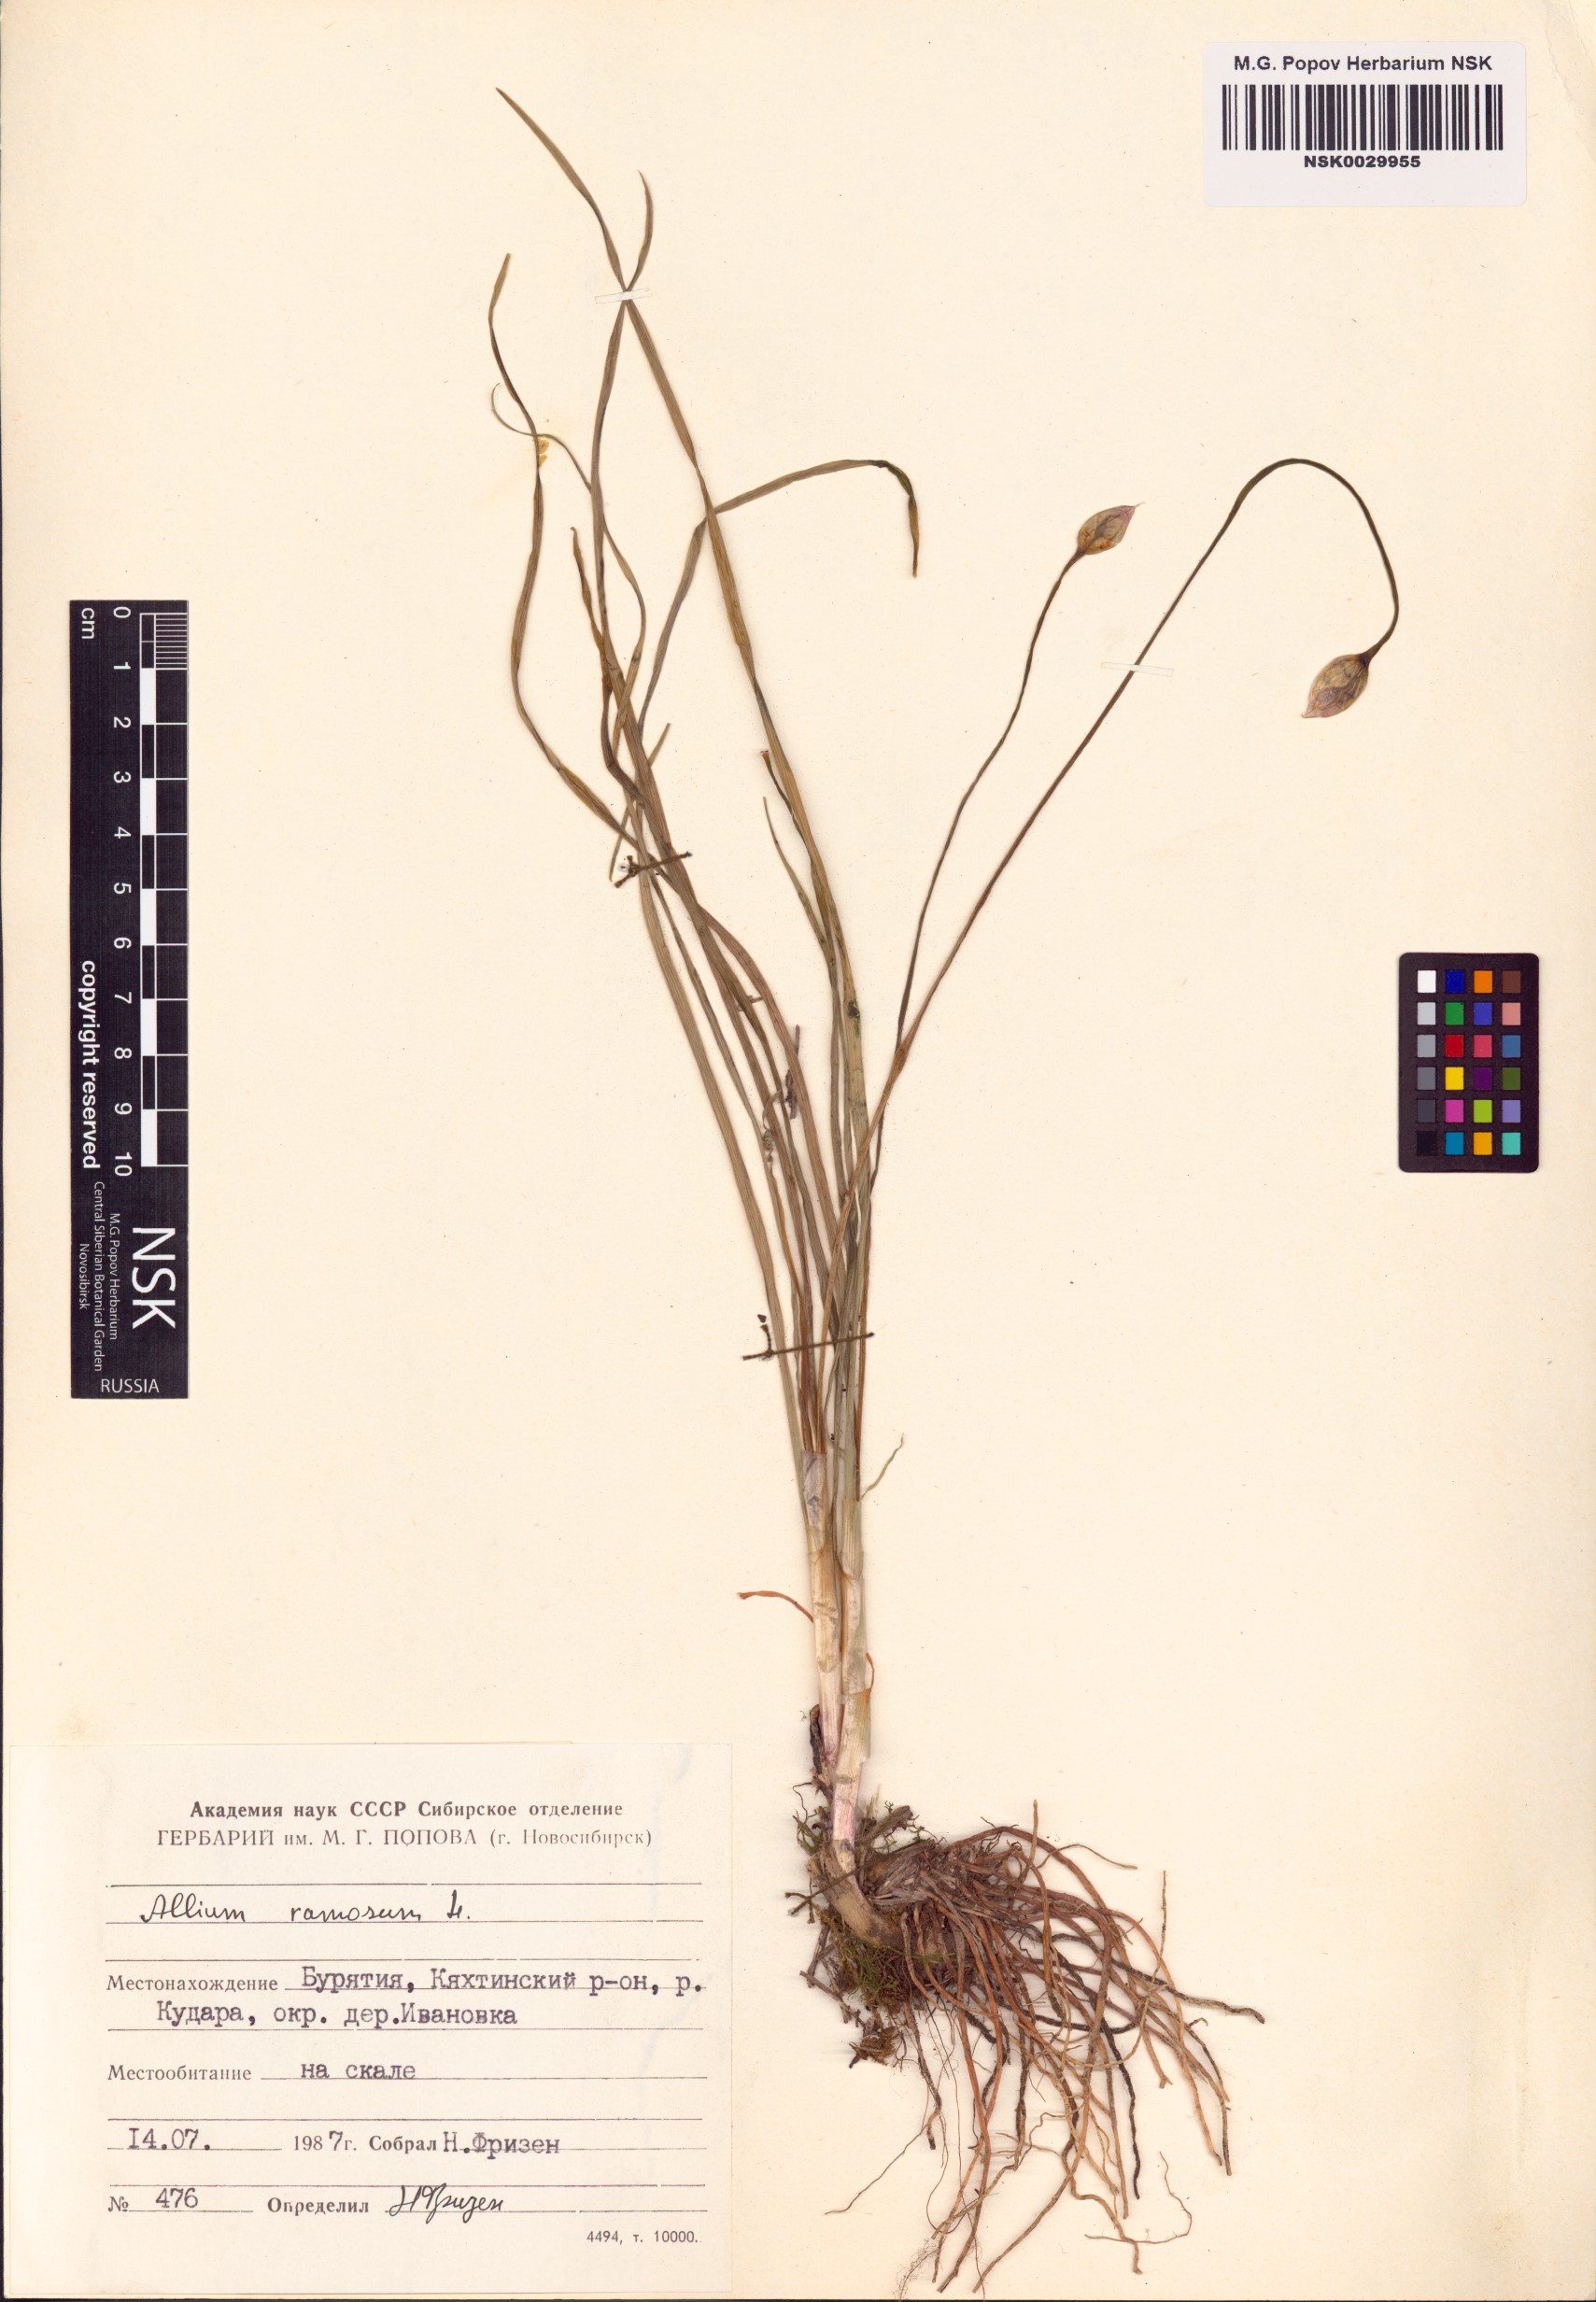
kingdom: Plantae
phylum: Tracheophyta
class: Liliopsida
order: Asparagales
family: Amaryllidaceae
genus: Allium
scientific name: Allium ramosum
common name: Fragrant garlic
